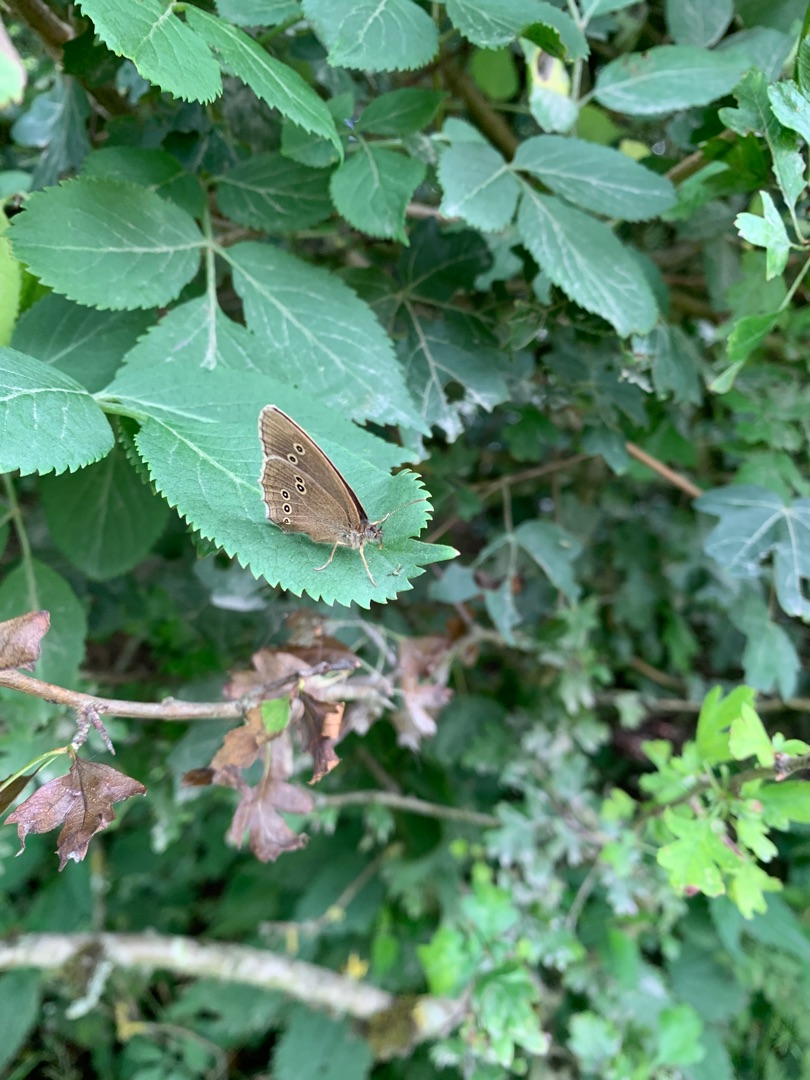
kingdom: Animalia
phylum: Arthropoda
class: Insecta
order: Lepidoptera
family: Nymphalidae
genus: Aphantopus
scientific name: Aphantopus hyperantus
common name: Engrandøje
